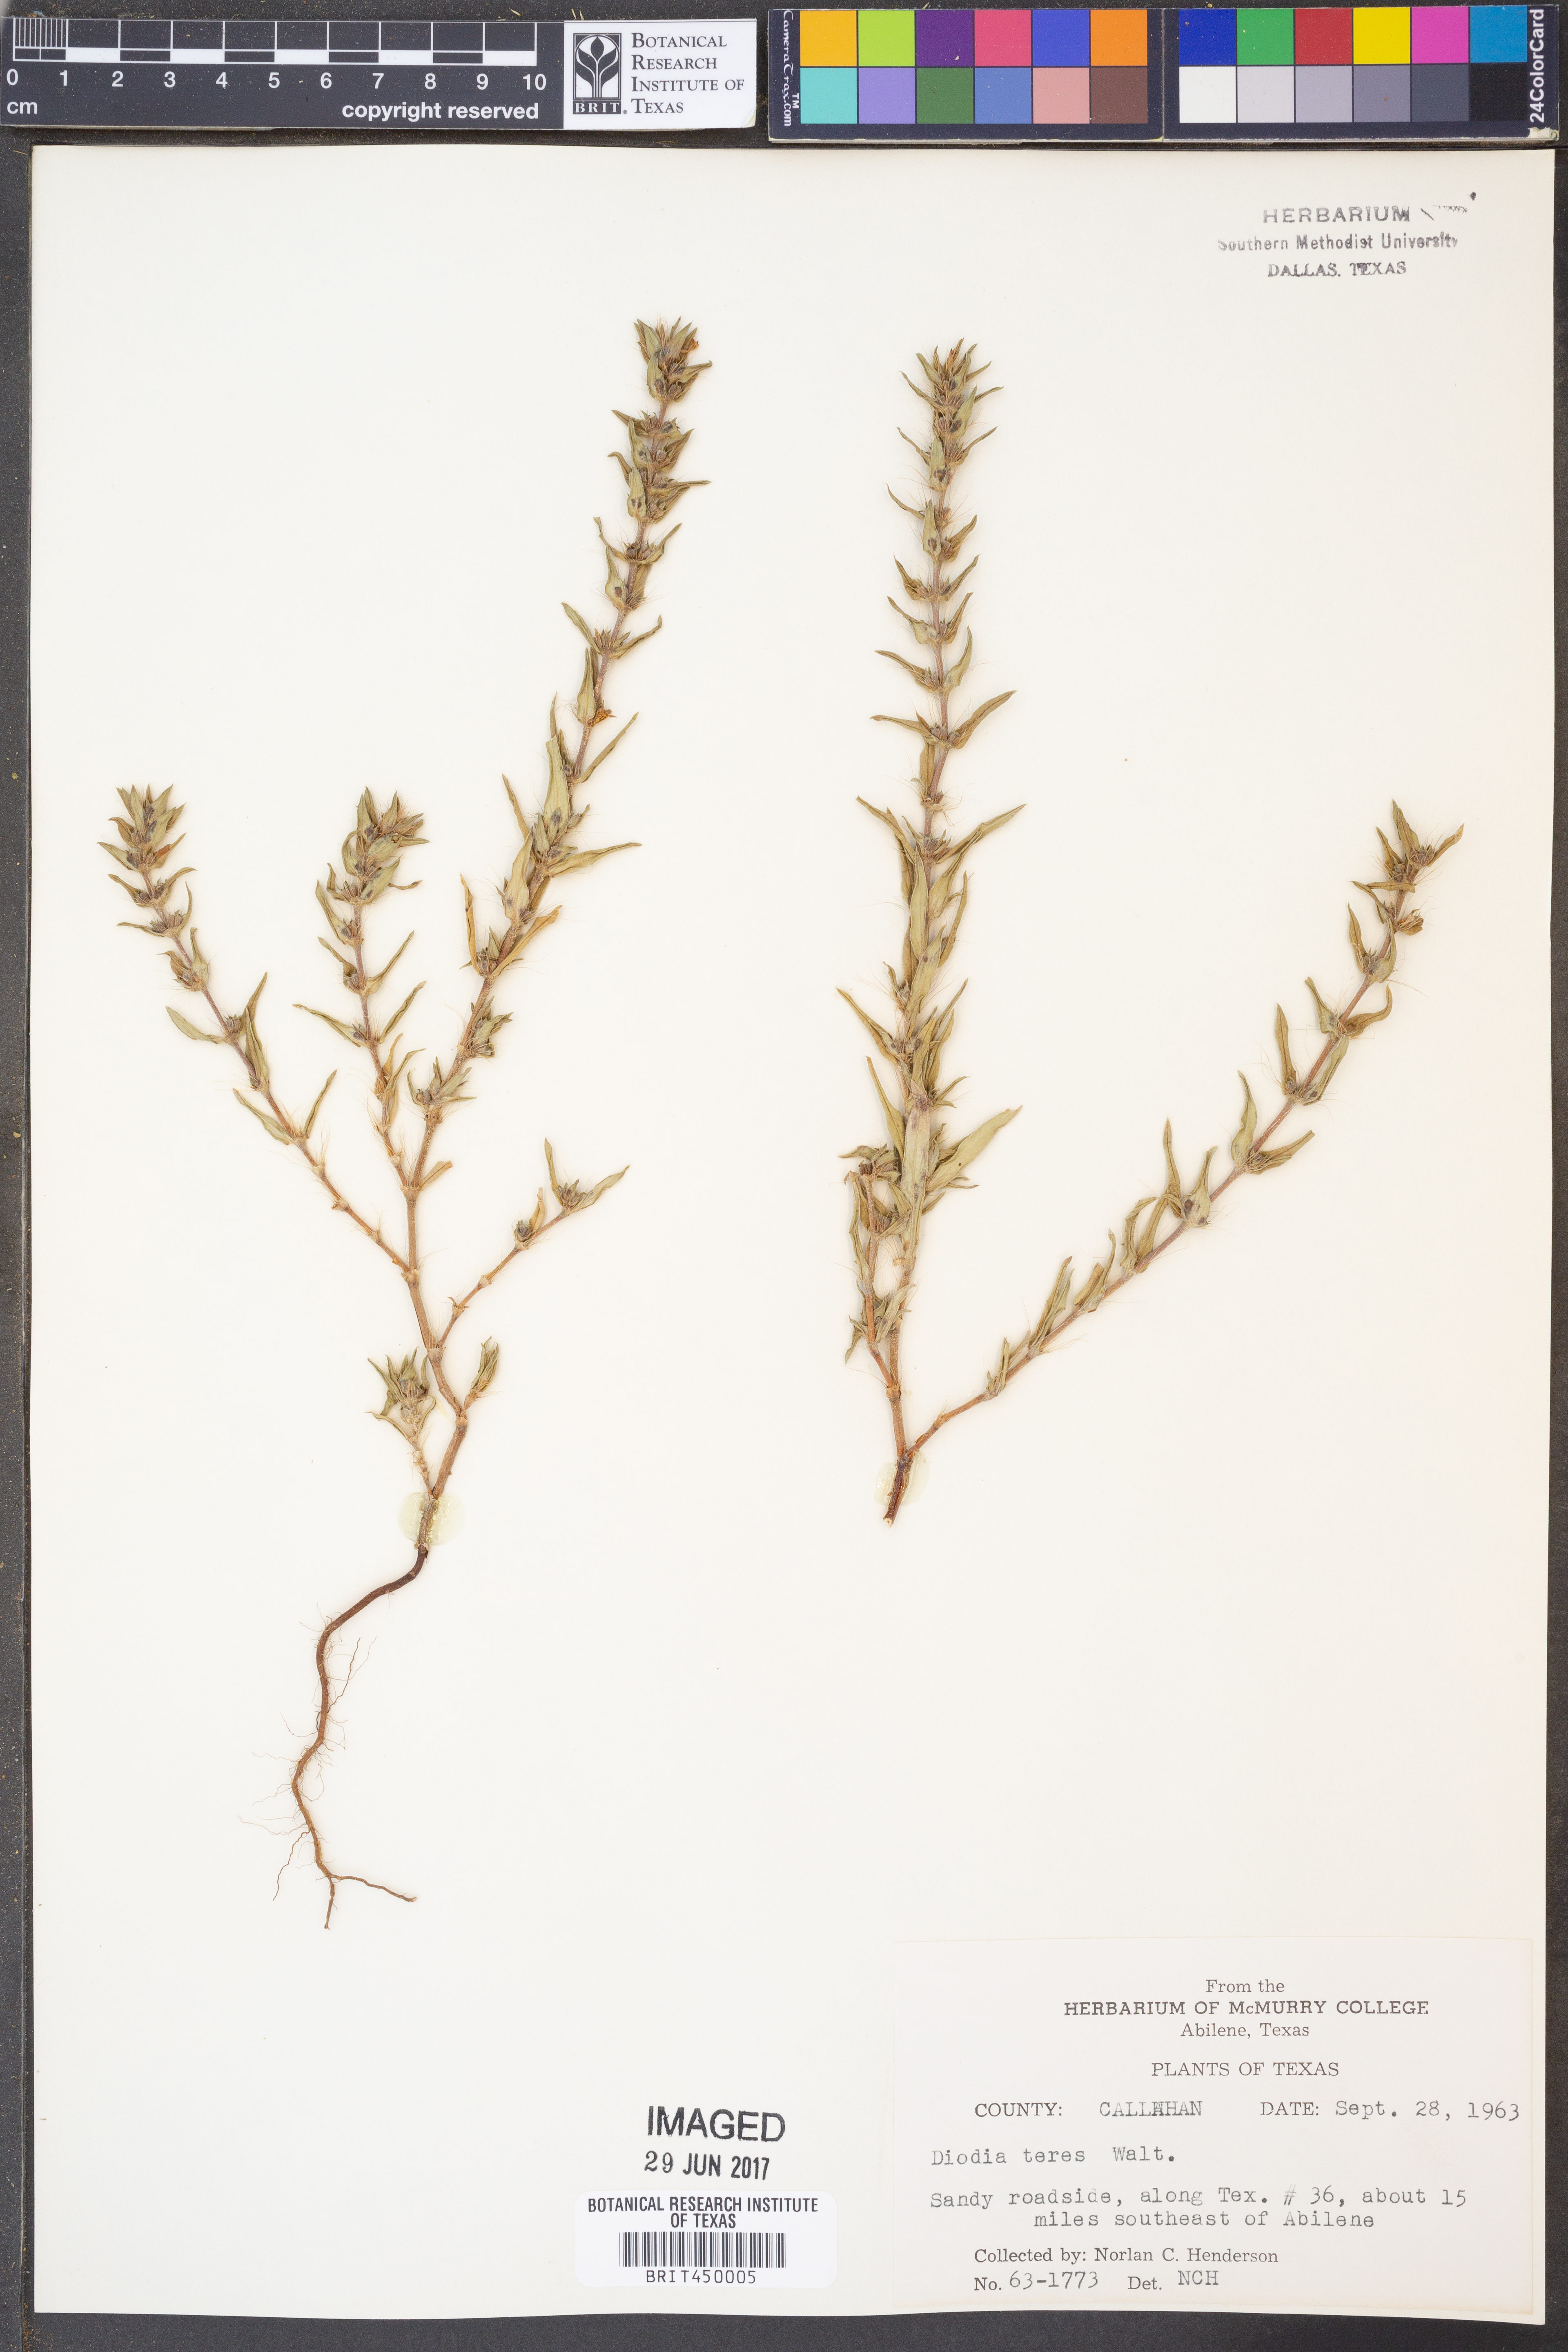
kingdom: Plantae
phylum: Tracheophyta
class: Magnoliopsida
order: Gentianales
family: Rubiaceae
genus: Hexasepalum
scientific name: Hexasepalum teres
